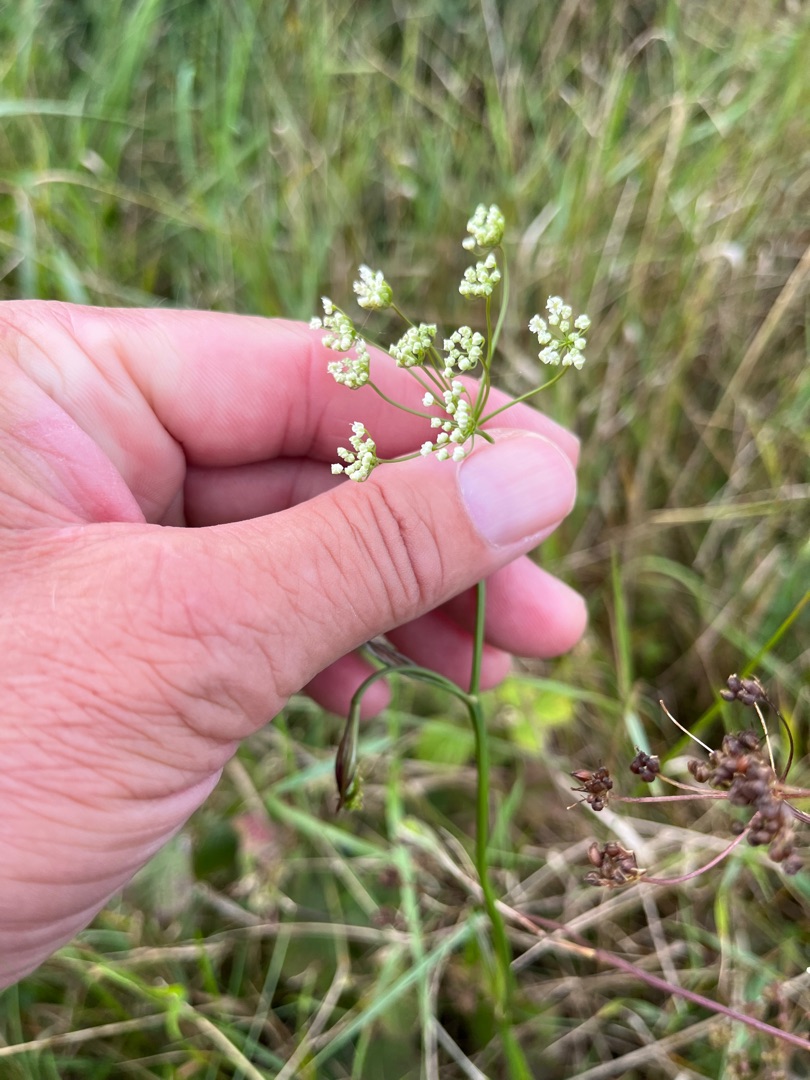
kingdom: Plantae
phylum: Tracheophyta
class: Magnoliopsida
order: Apiales
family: Apiaceae
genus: Pimpinella
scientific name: Pimpinella saxifraga
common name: Almindelig pimpinelle
